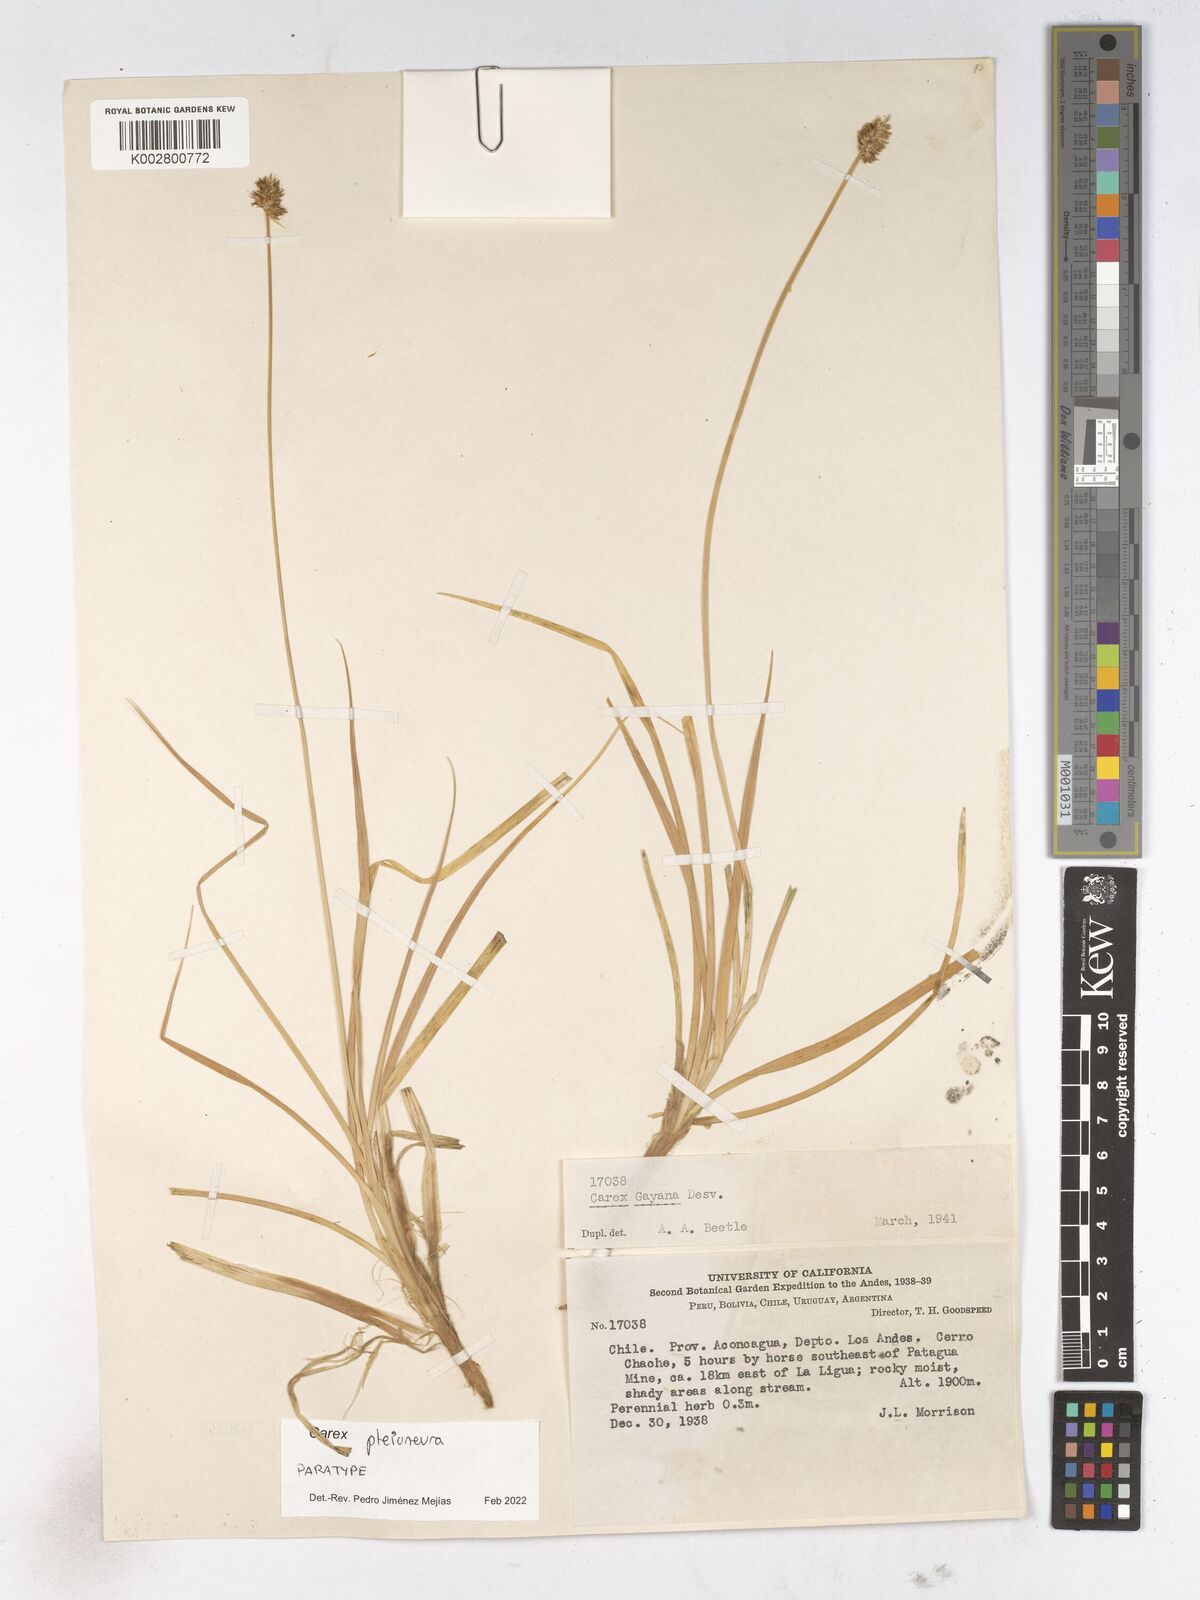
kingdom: Plantae
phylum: Tracheophyta
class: Liliopsida
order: Poales
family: Cyperaceae
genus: Carex
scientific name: Carex pleioneura
